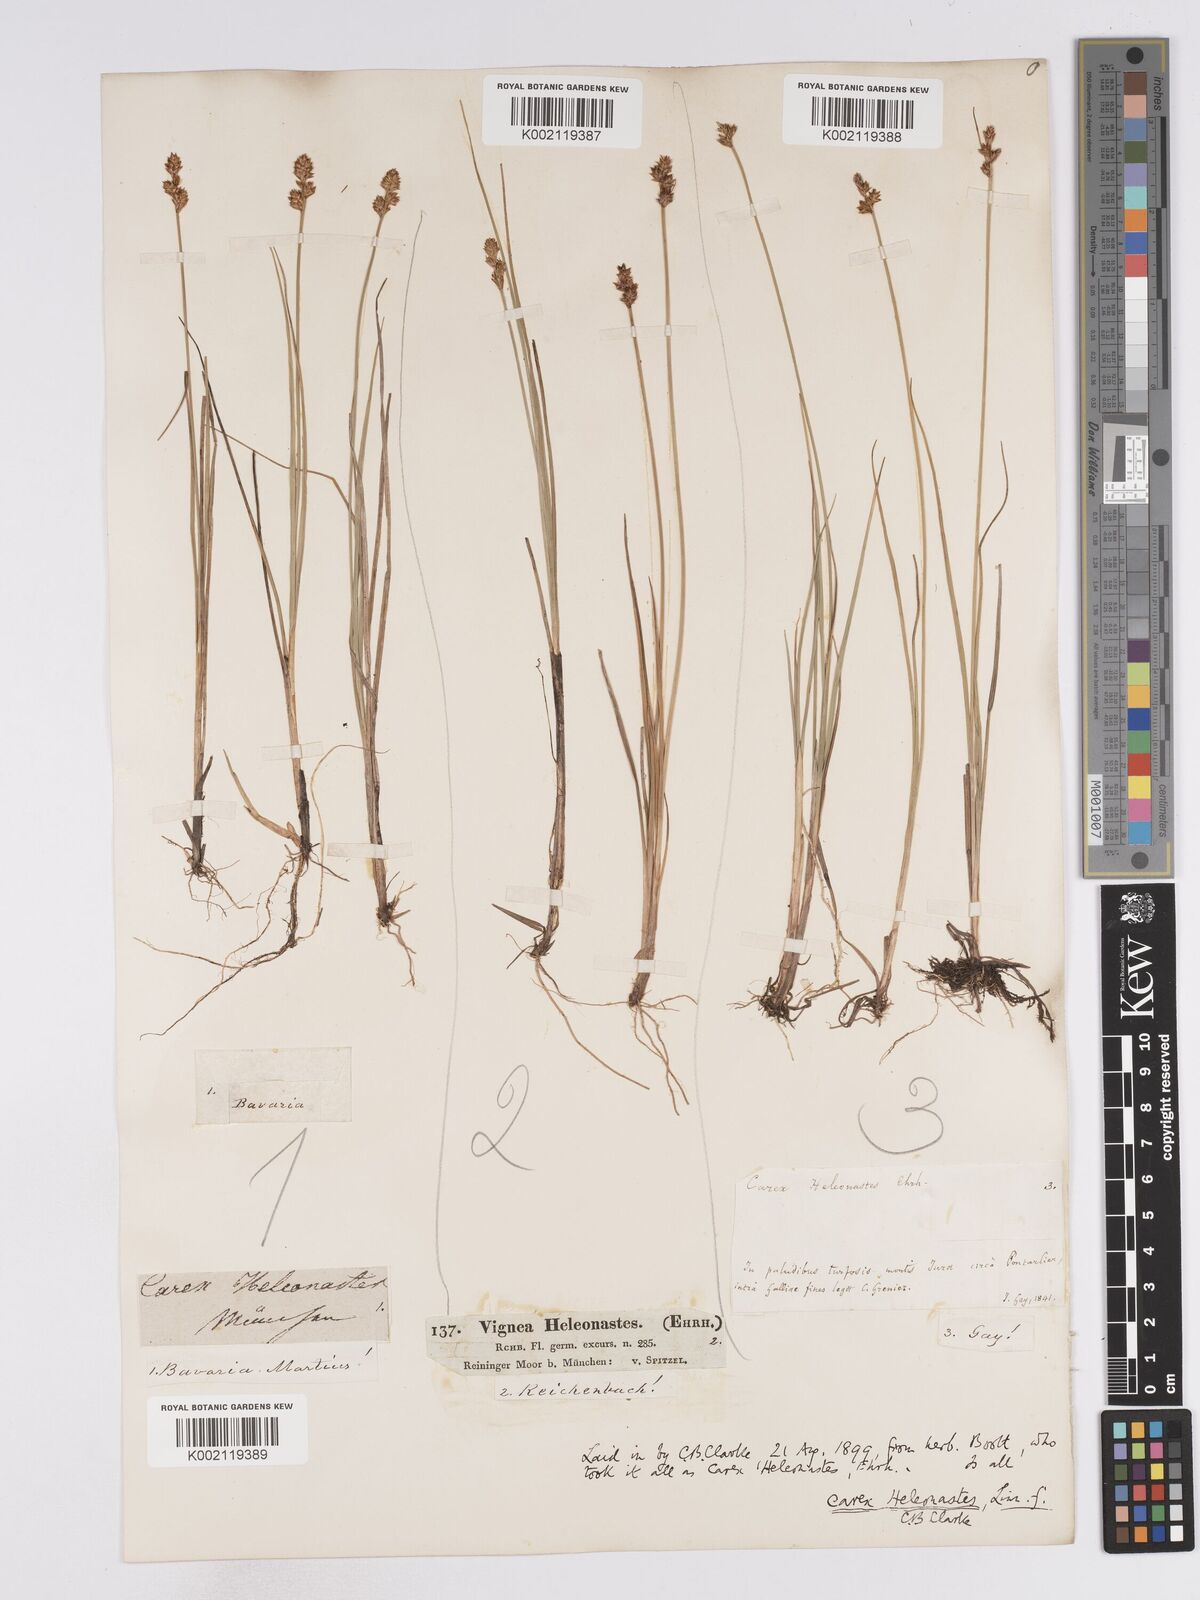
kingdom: Plantae
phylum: Tracheophyta
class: Liliopsida
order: Poales
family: Cyperaceae
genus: Carex
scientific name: Carex heleonastes
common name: Hudson bay sedge
